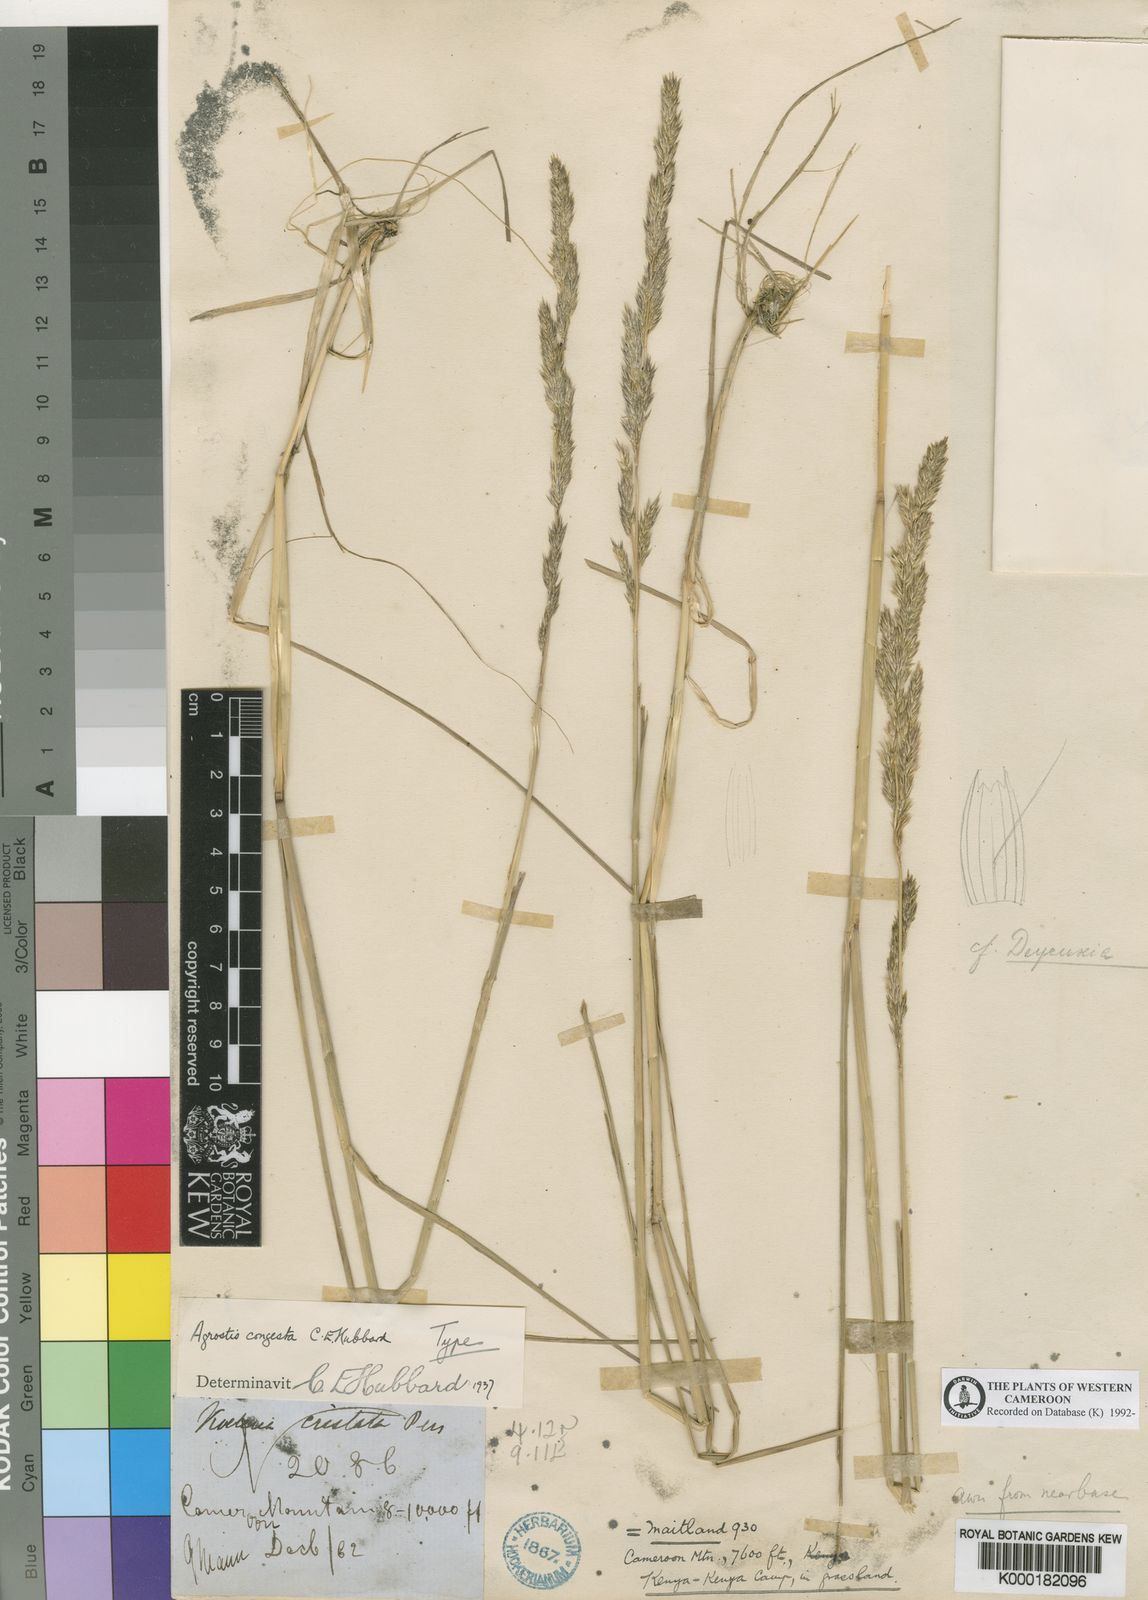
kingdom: Plantae
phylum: Tracheophyta
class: Liliopsida
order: Poales
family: Poaceae
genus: Agrostis
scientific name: Agrostis quinqueseta
